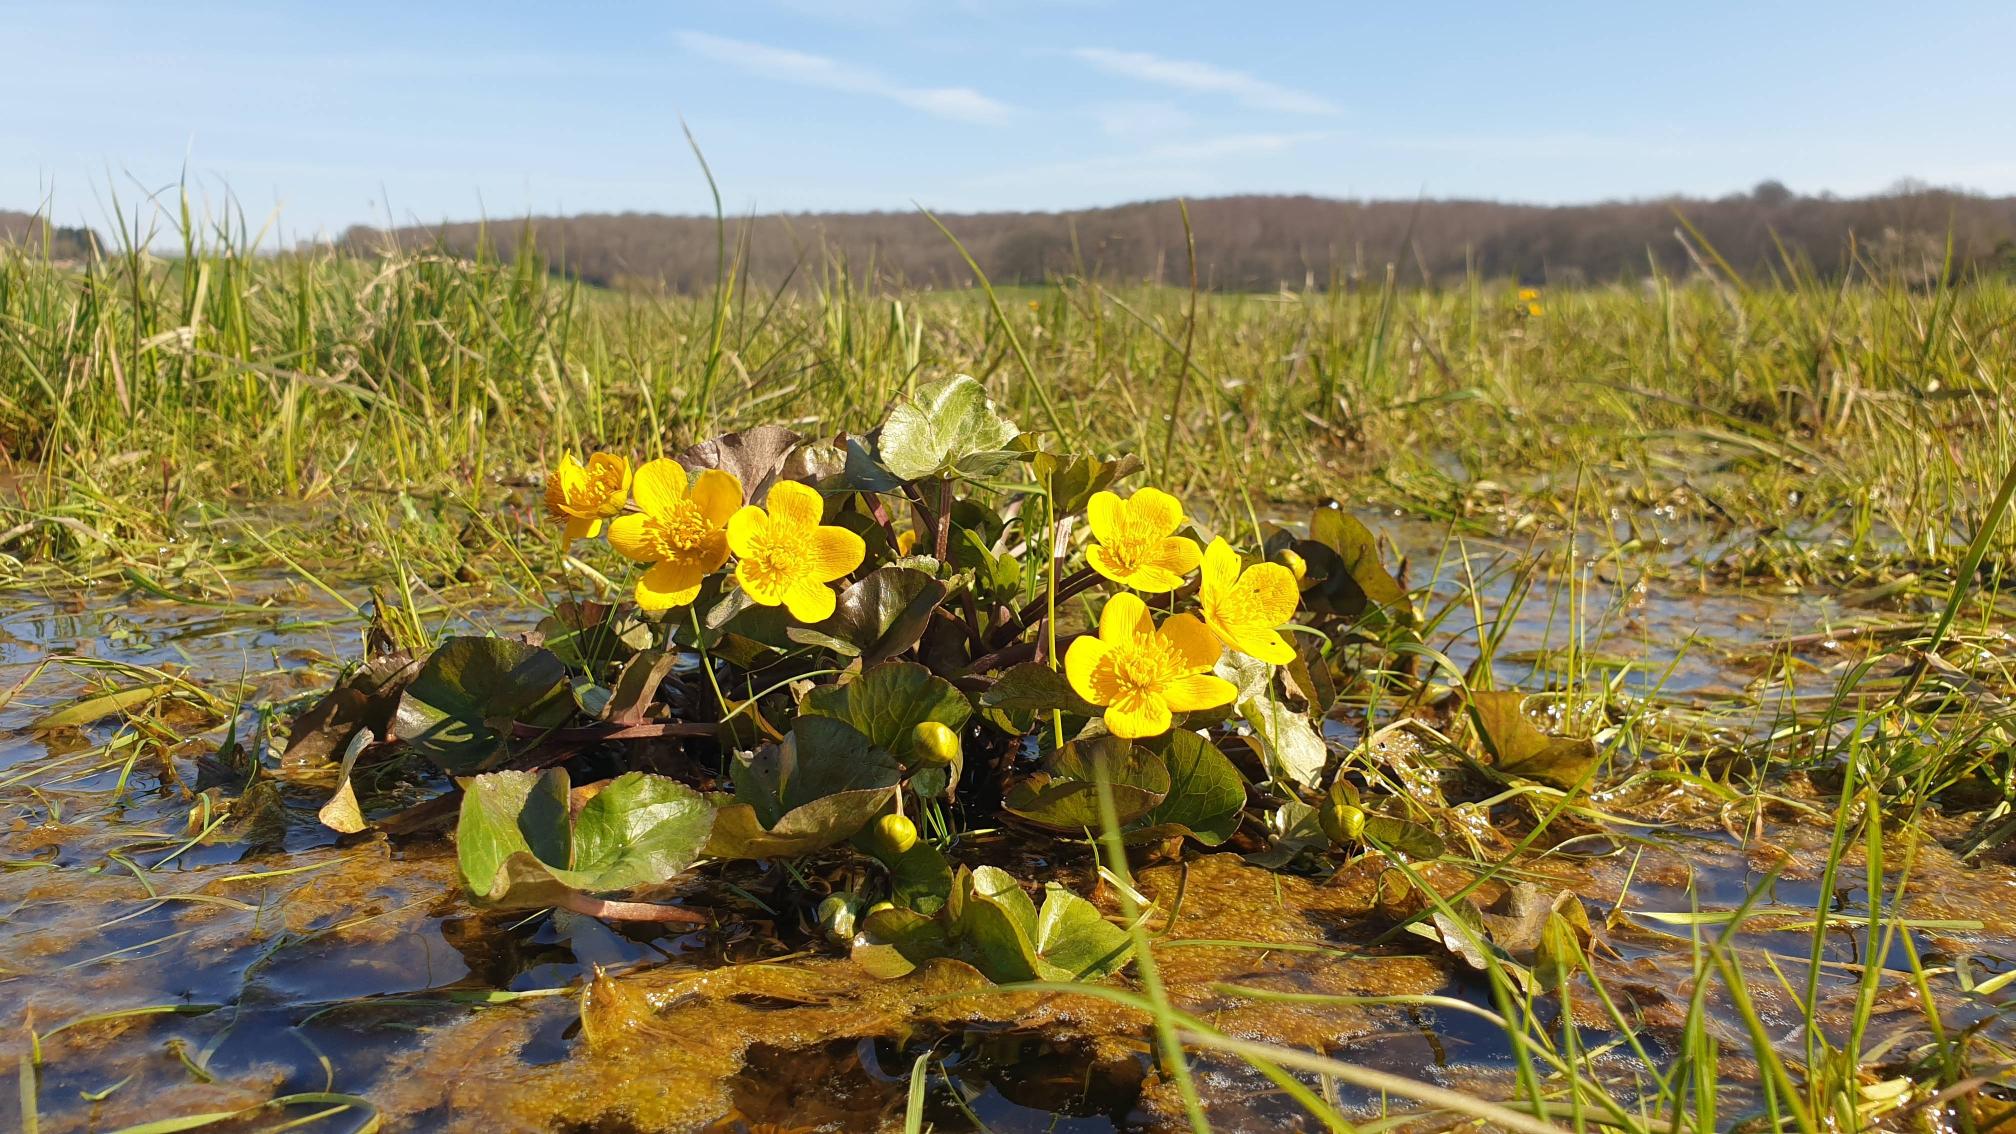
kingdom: Plantae
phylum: Tracheophyta
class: Magnoliopsida
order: Ranunculales
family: Ranunculaceae
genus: Caltha
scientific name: Caltha palustris
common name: Eng-kabbeleje
